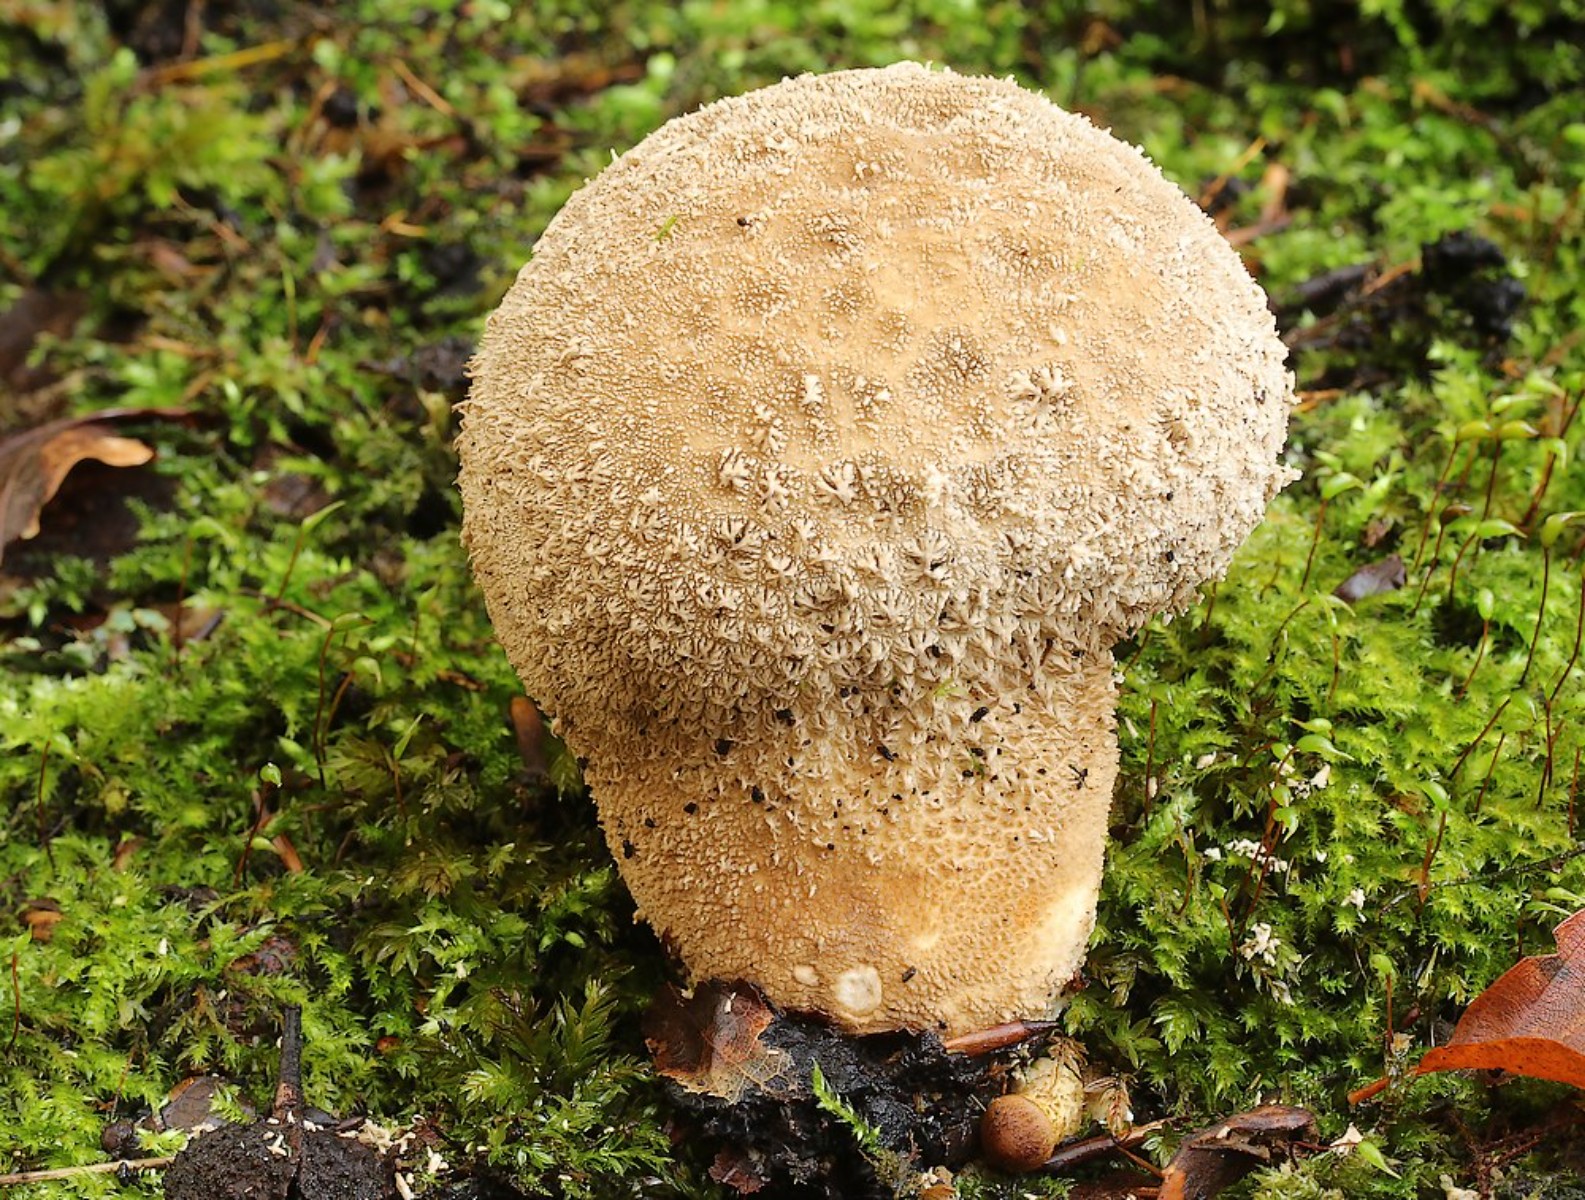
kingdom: Fungi
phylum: Basidiomycota
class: Agaricomycetes
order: Agaricales
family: Lycoperdaceae
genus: Lycoperdon
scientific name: Lycoperdon excipuliforme
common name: højstokket støvbold
